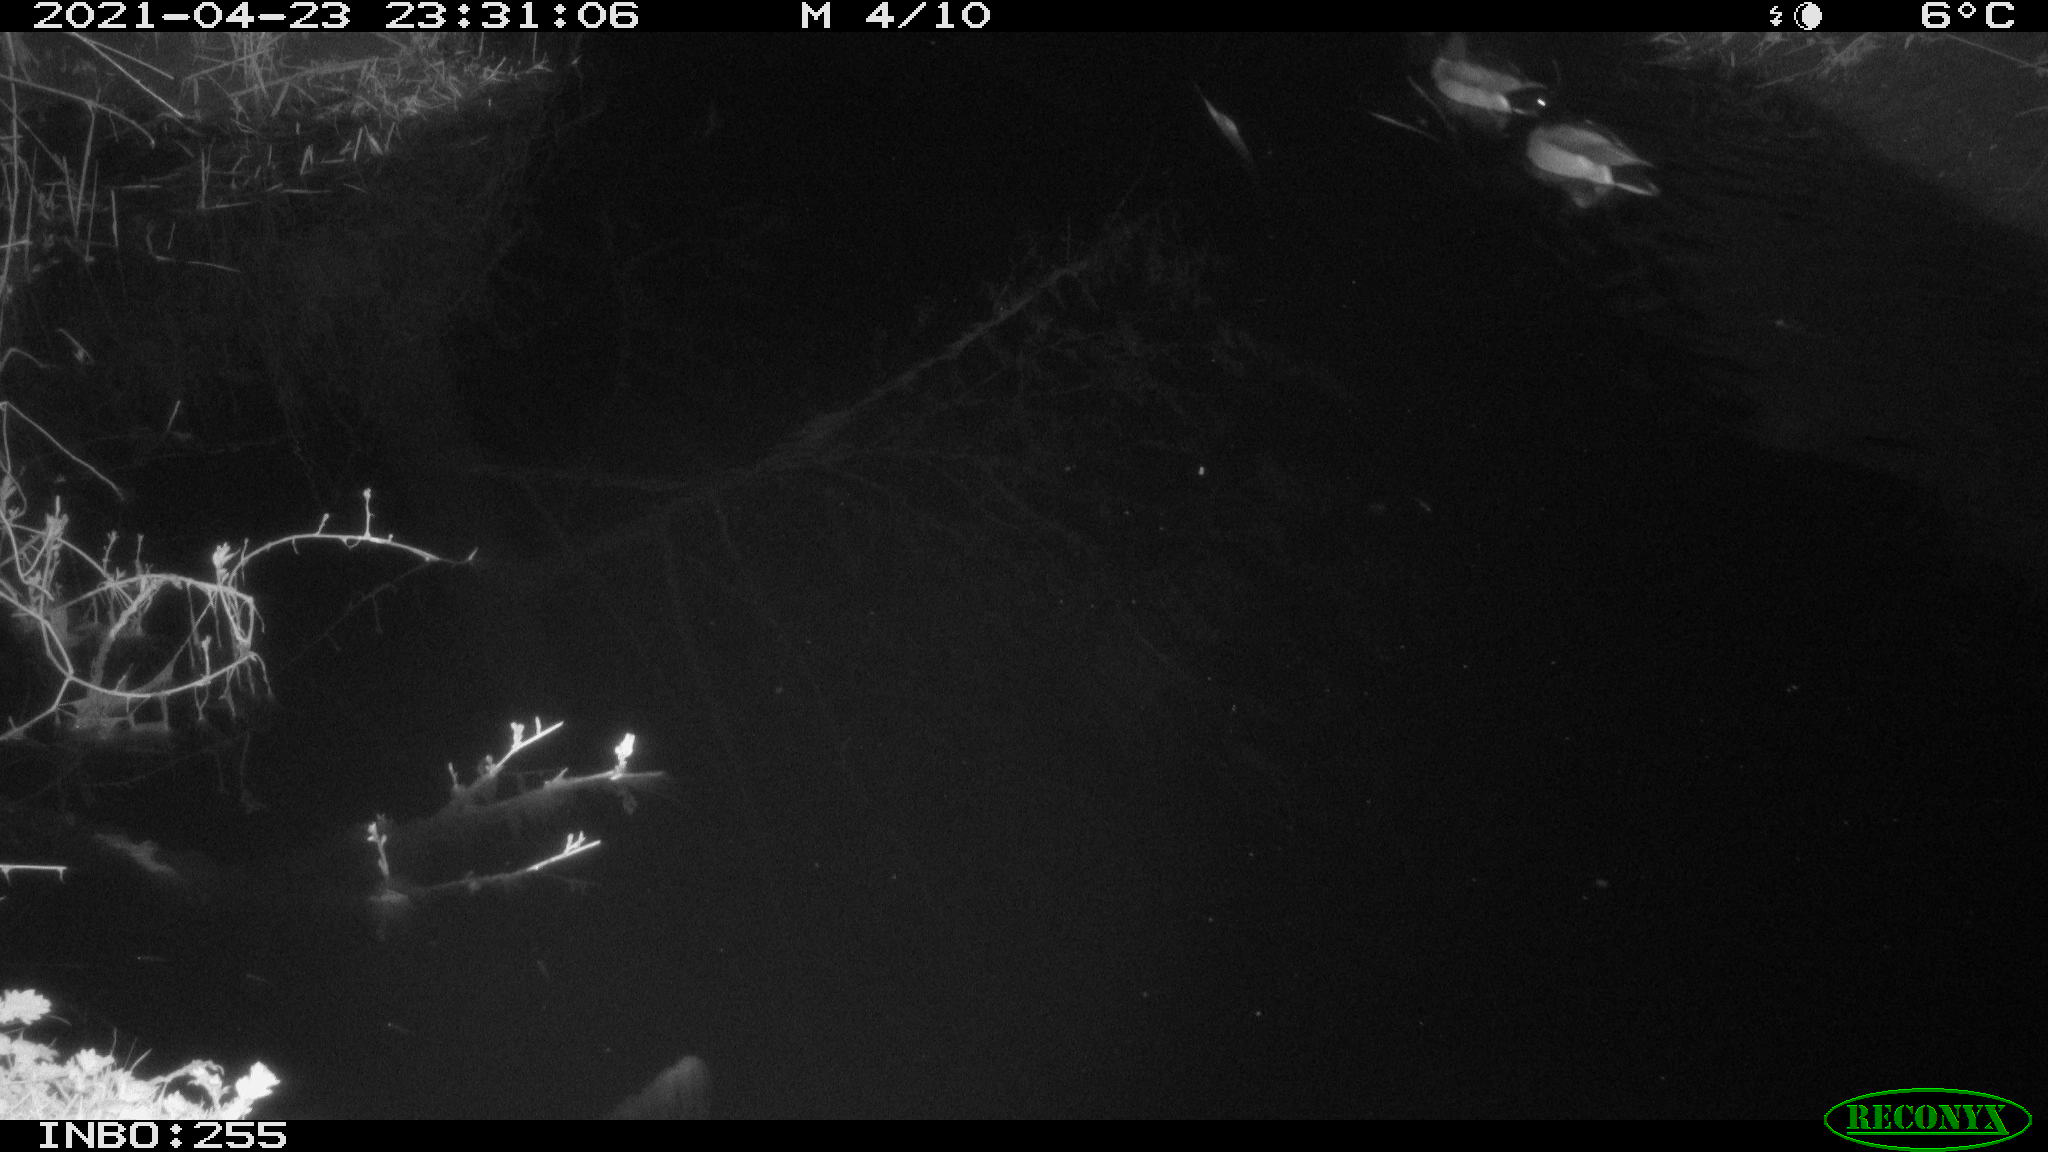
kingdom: Animalia
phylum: Chordata
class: Aves
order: Anseriformes
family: Anatidae
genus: Anas
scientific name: Anas platyrhynchos
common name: Mallard
